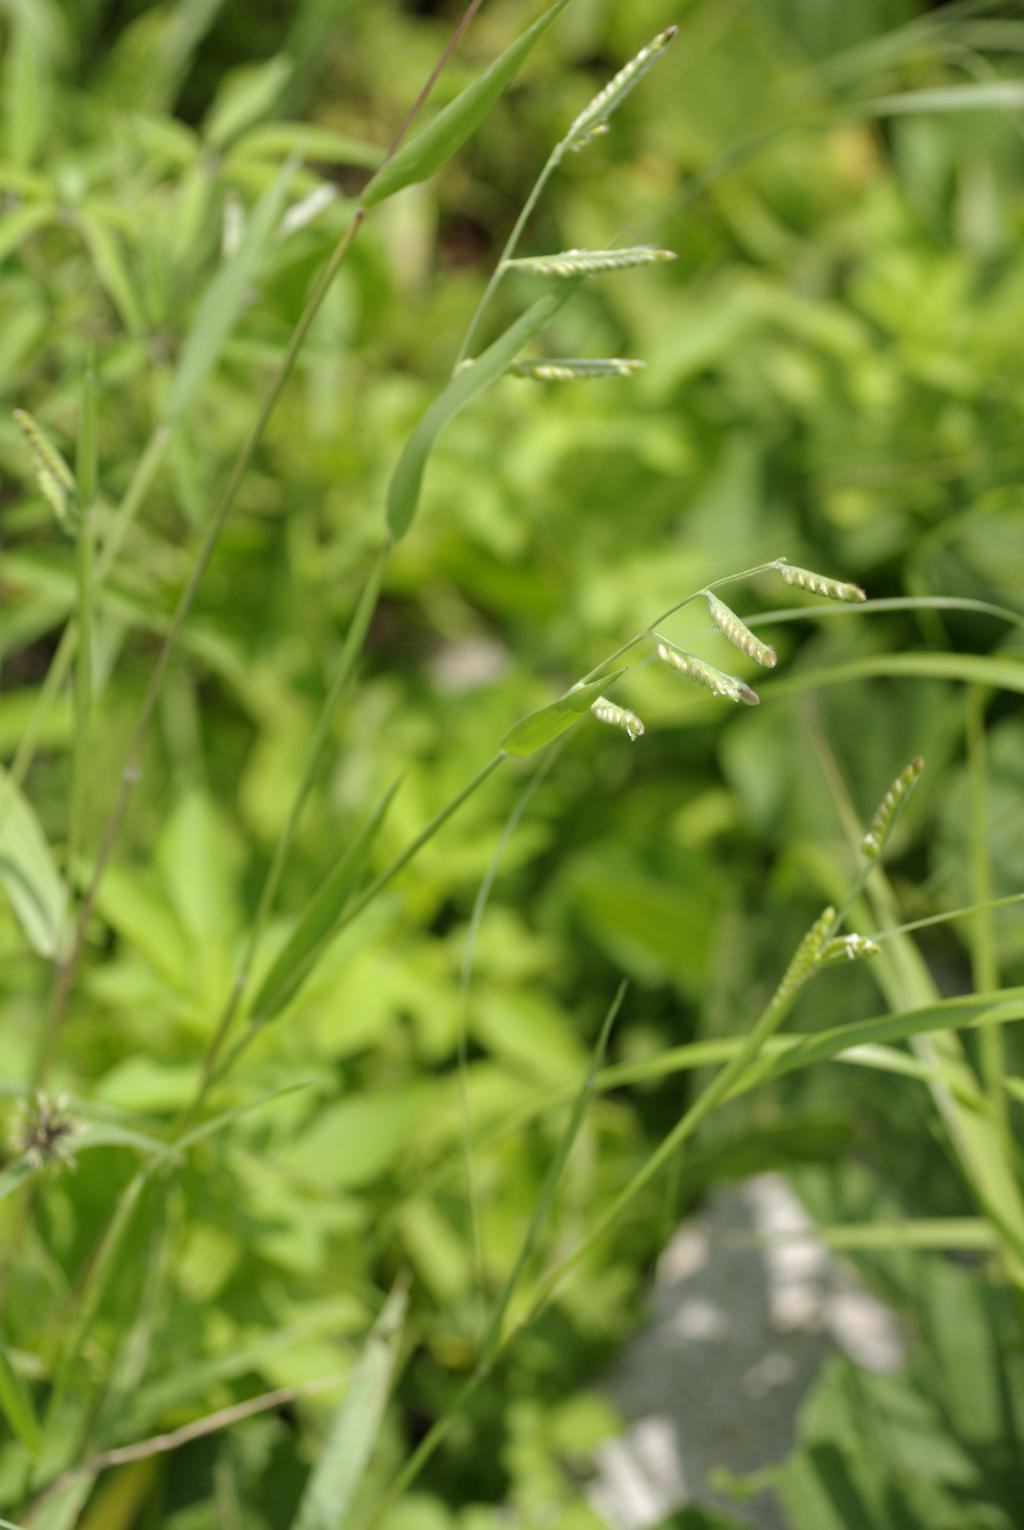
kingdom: Plantae
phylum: Tracheophyta
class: Liliopsida
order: Poales
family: Poaceae
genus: Eriochloa
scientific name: Eriochloa villosa
